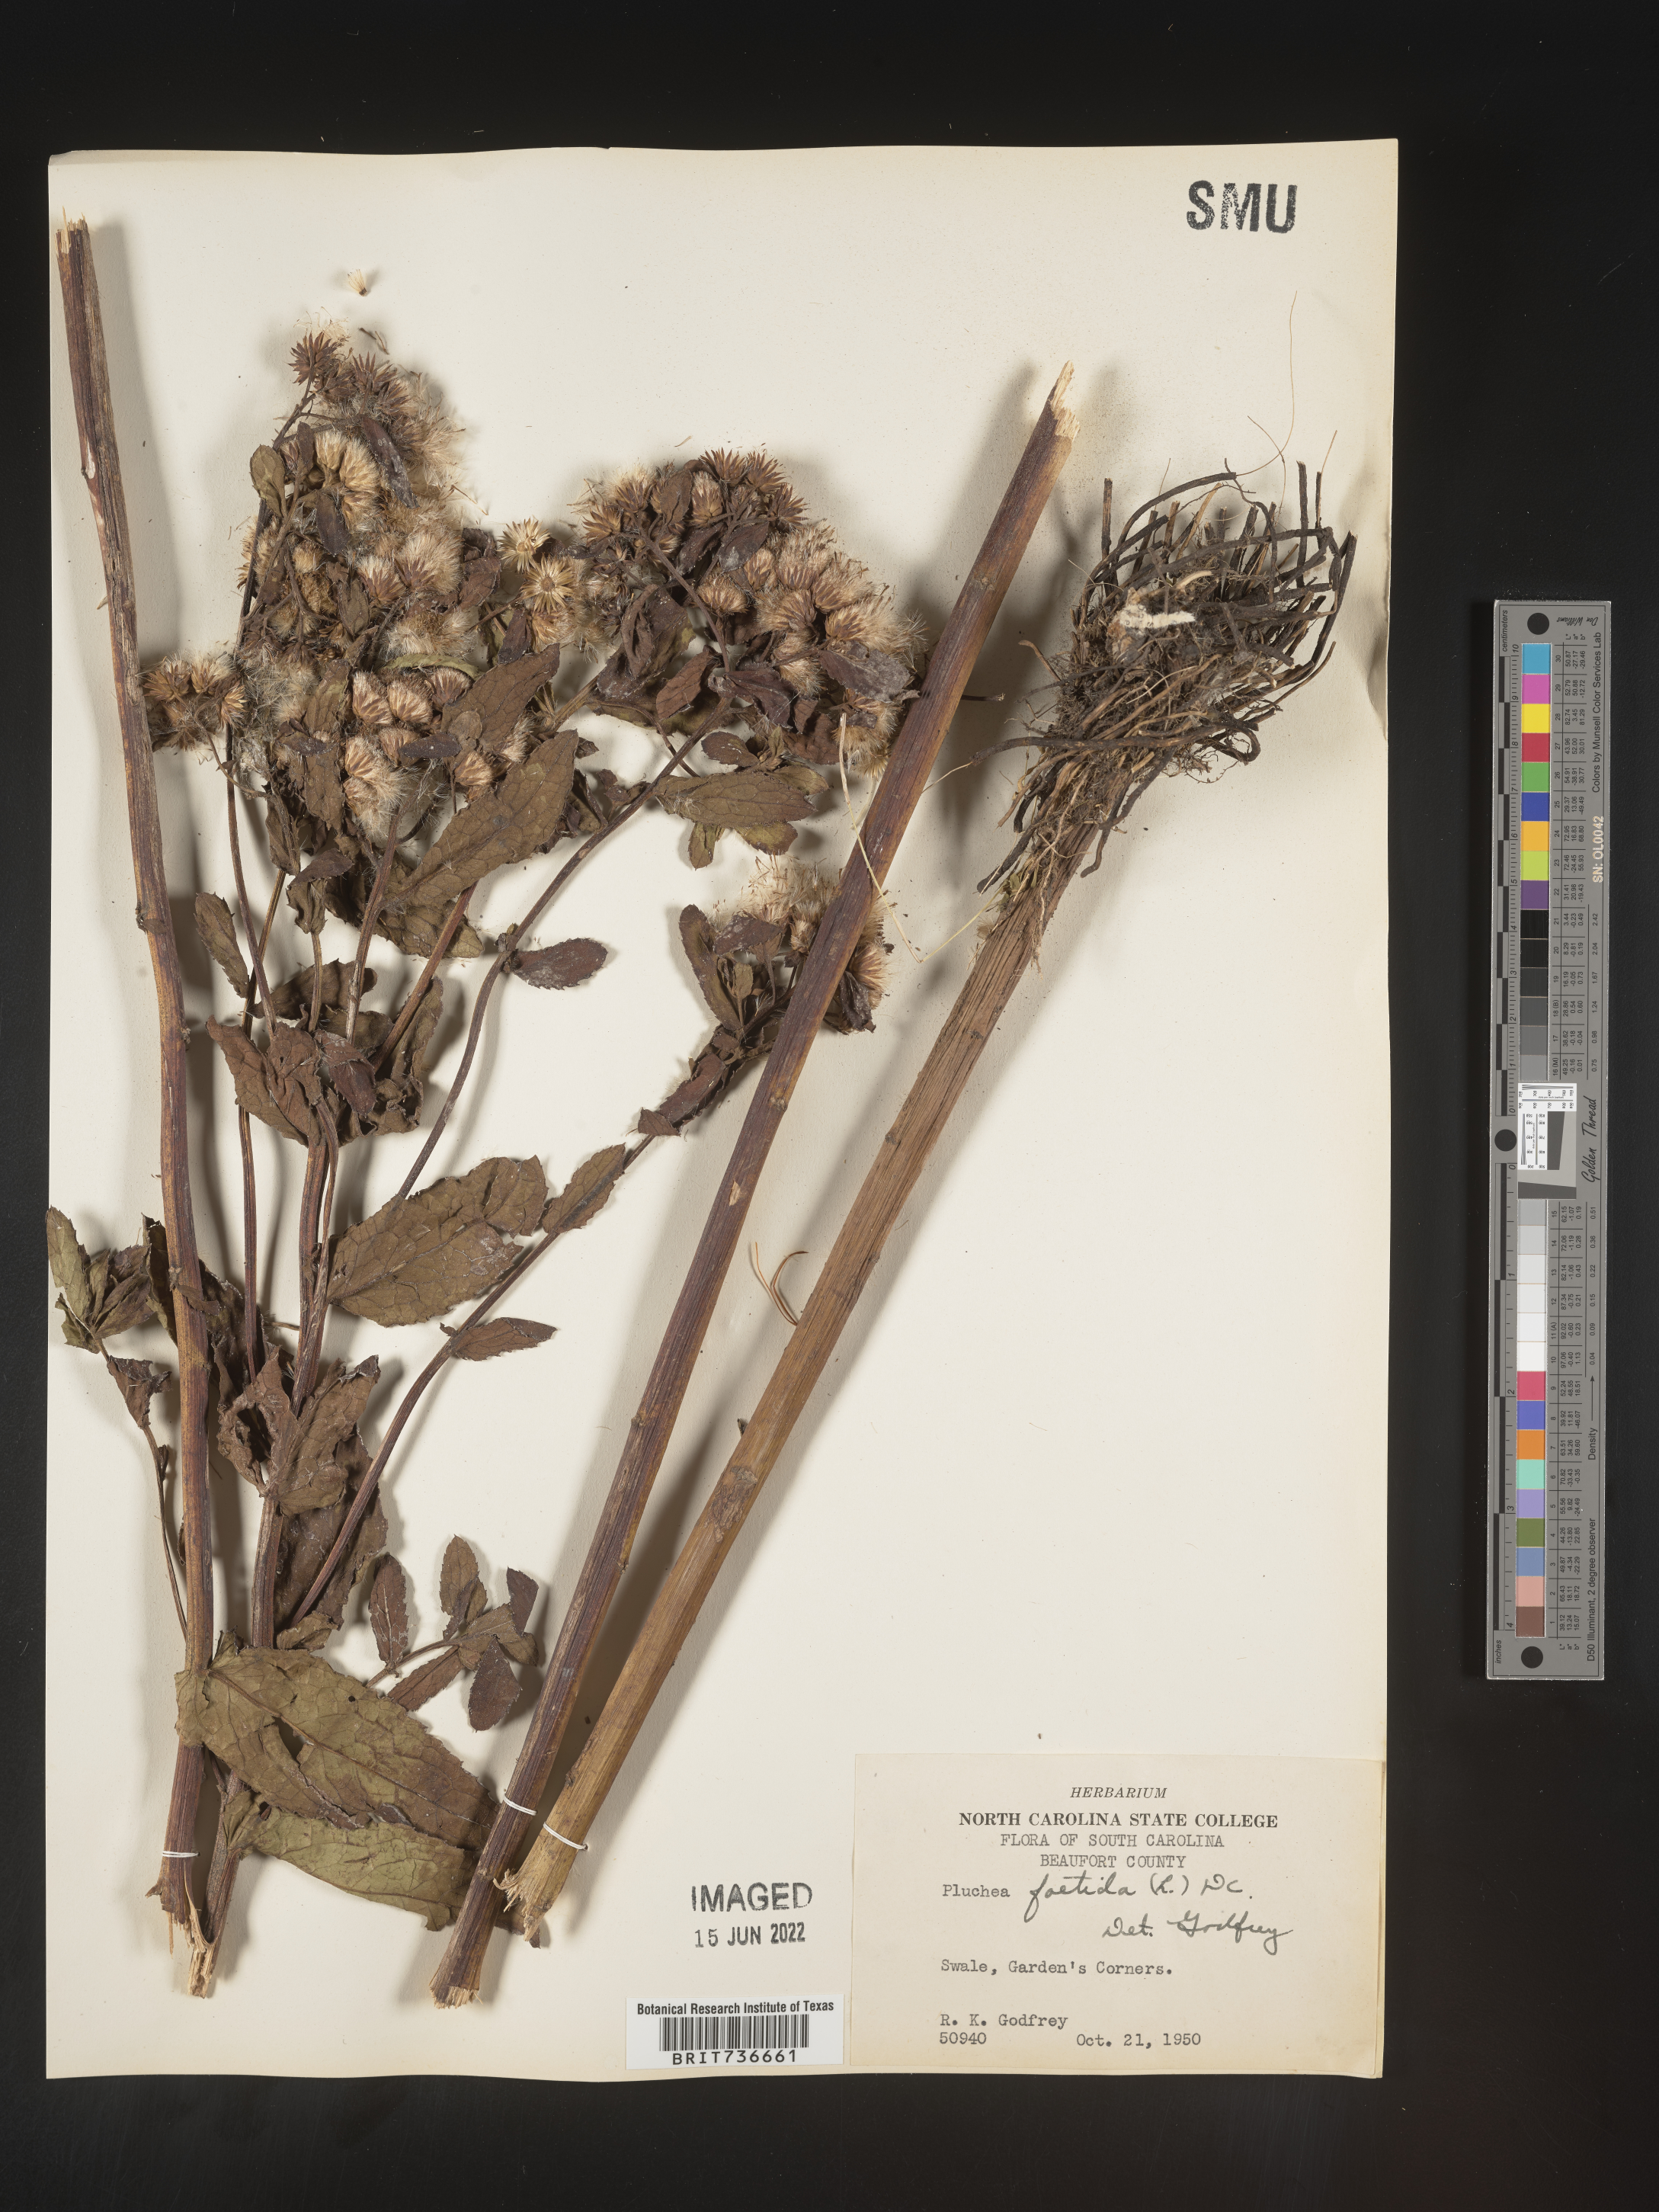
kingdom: Plantae
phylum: Tracheophyta
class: Magnoliopsida
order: Asterales
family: Asteraceae
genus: Pluchea
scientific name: Pluchea foetida
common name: Stinking camphorweed
